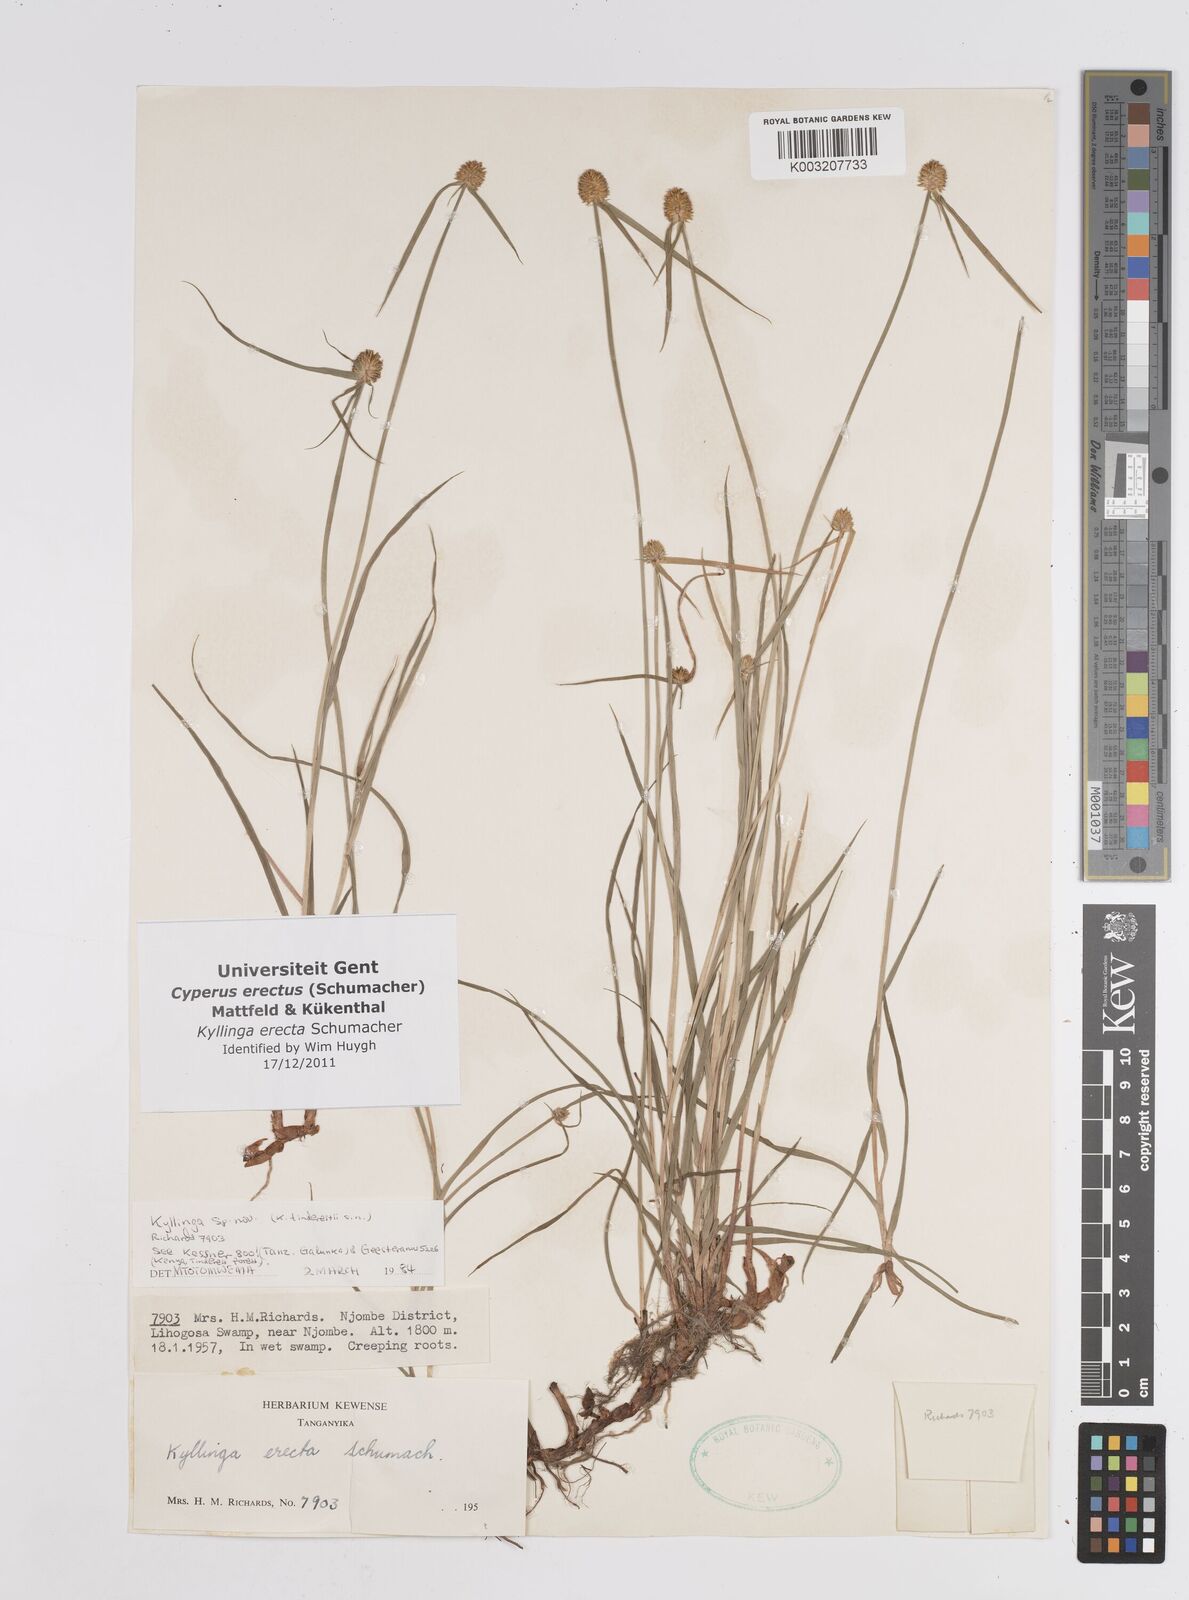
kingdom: Plantae
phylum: Tracheophyta
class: Liliopsida
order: Poales
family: Cyperaceae
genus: Cyperus
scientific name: Cyperus erectus
